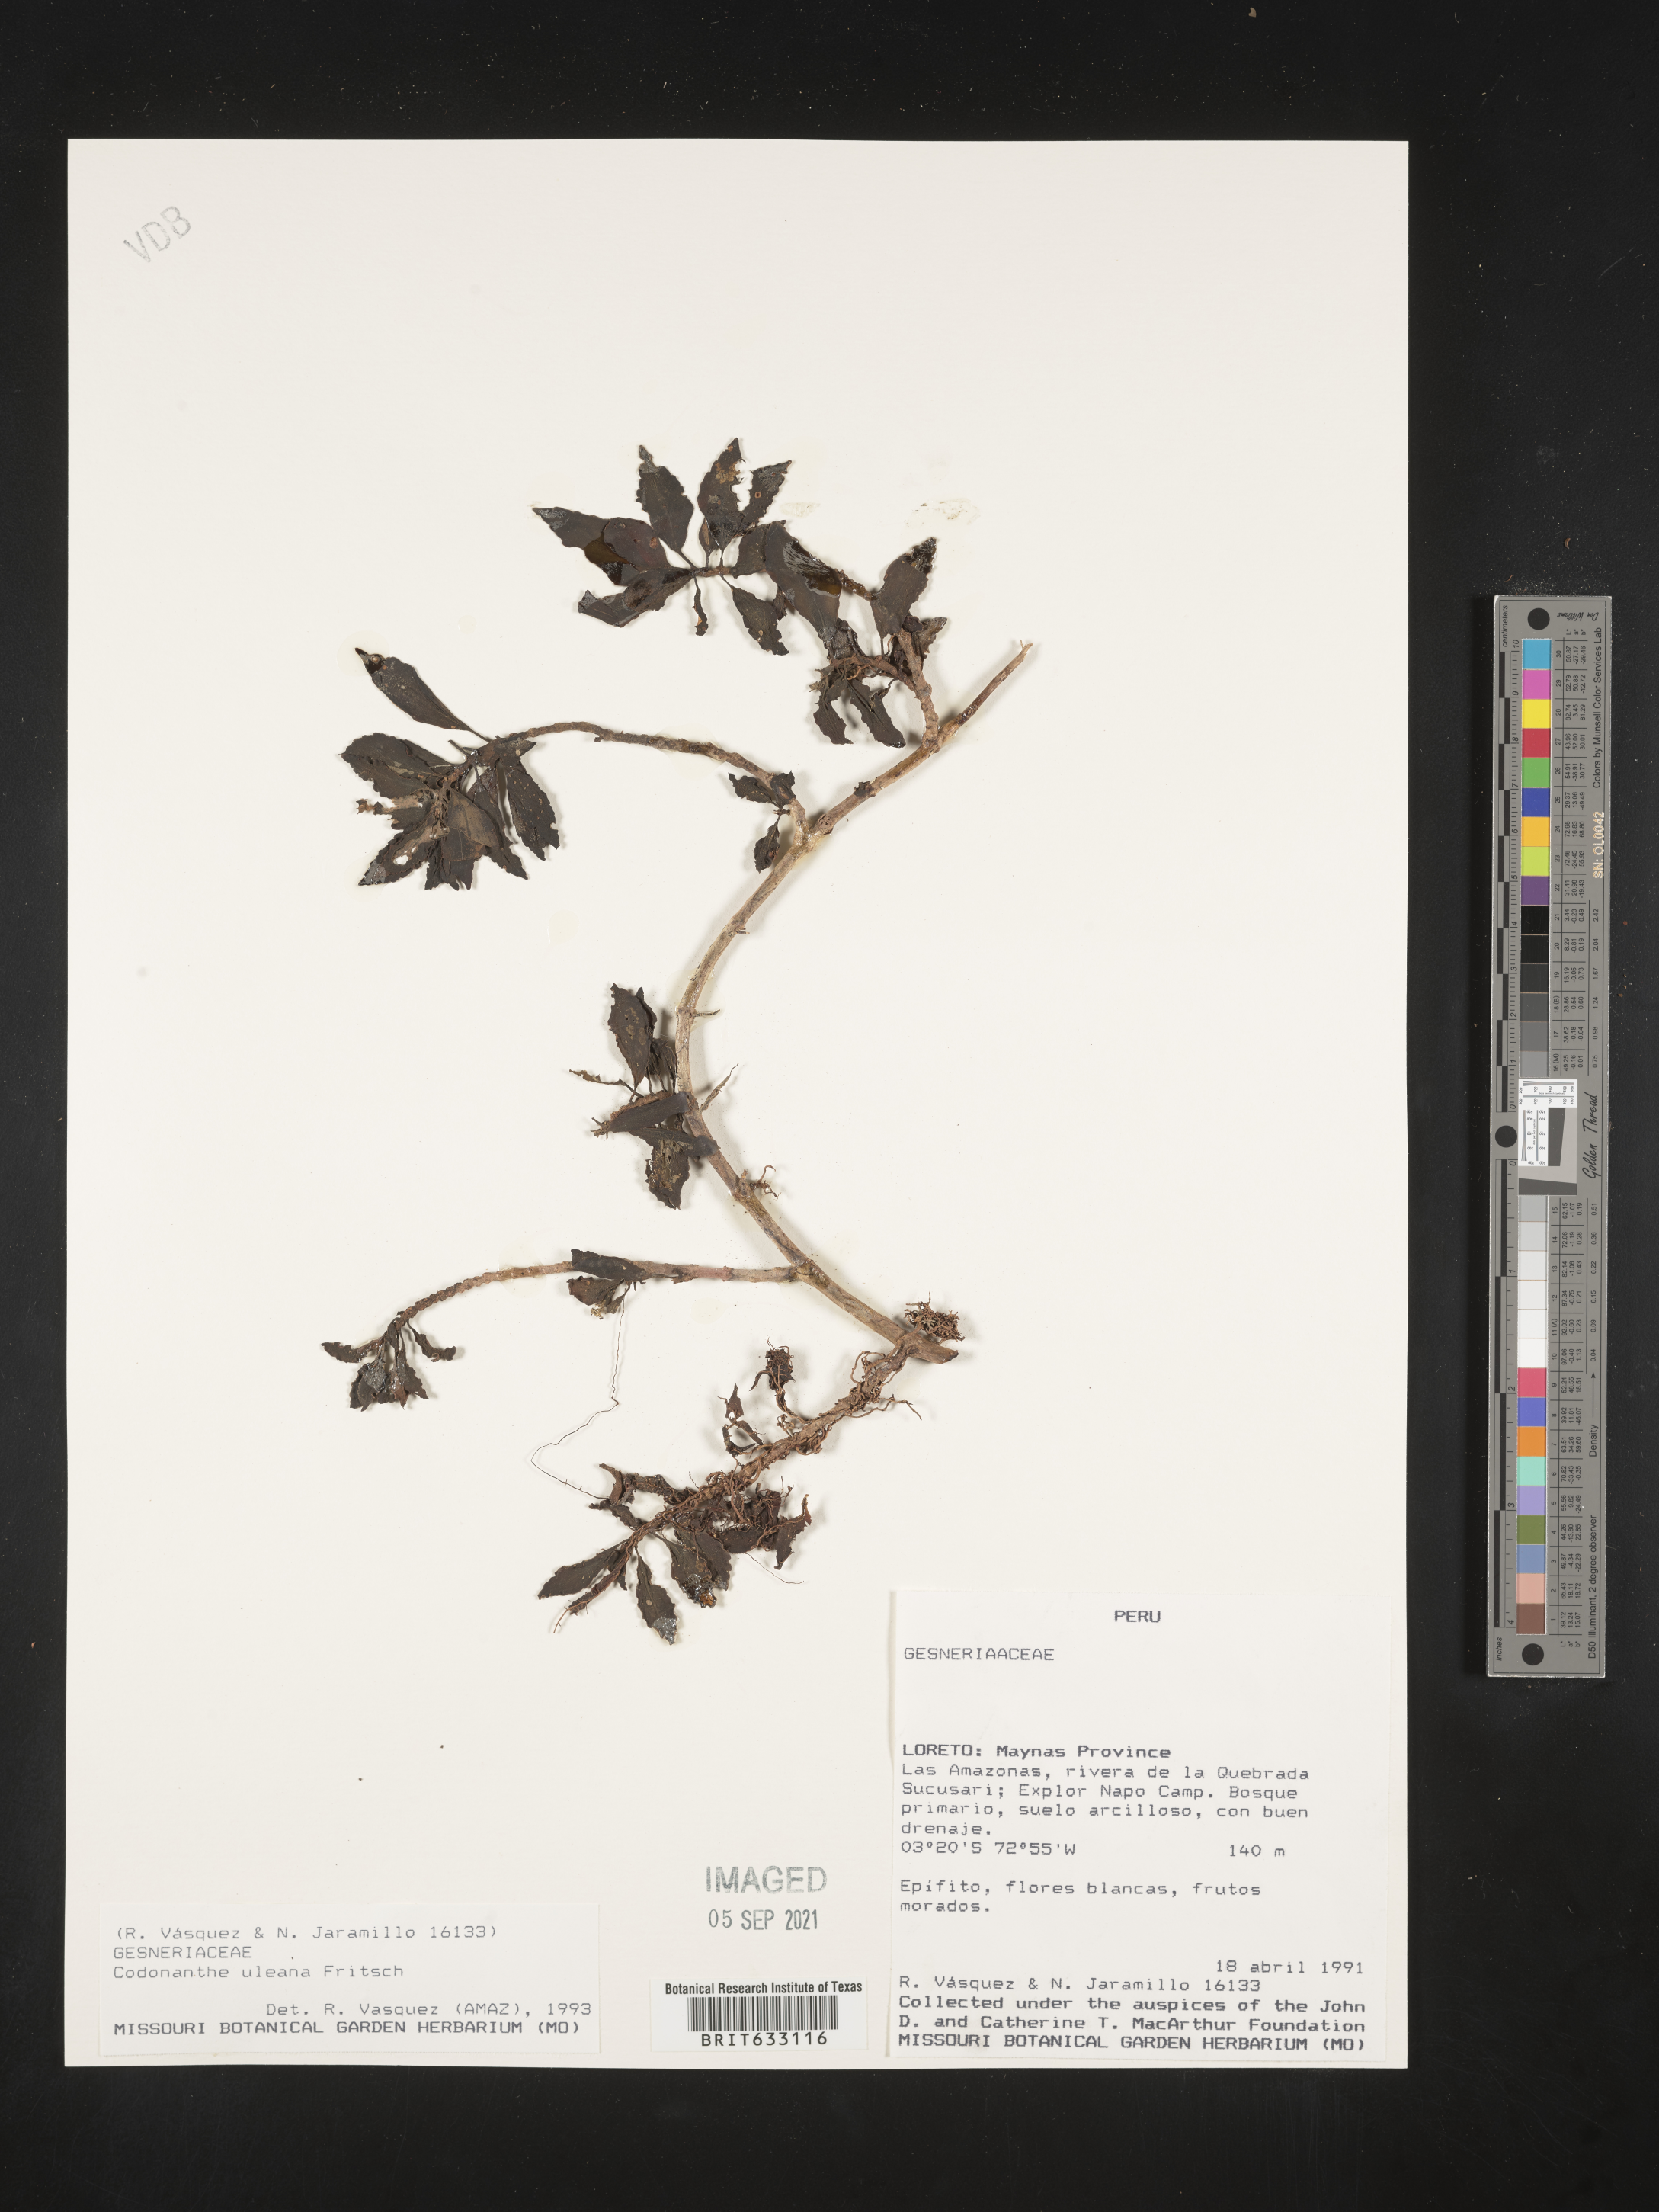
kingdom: Plantae
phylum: Tracheophyta
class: Magnoliopsida
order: Lamiales
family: Gesneriaceae
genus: Codonanthopsis
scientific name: Codonanthopsis uleana
